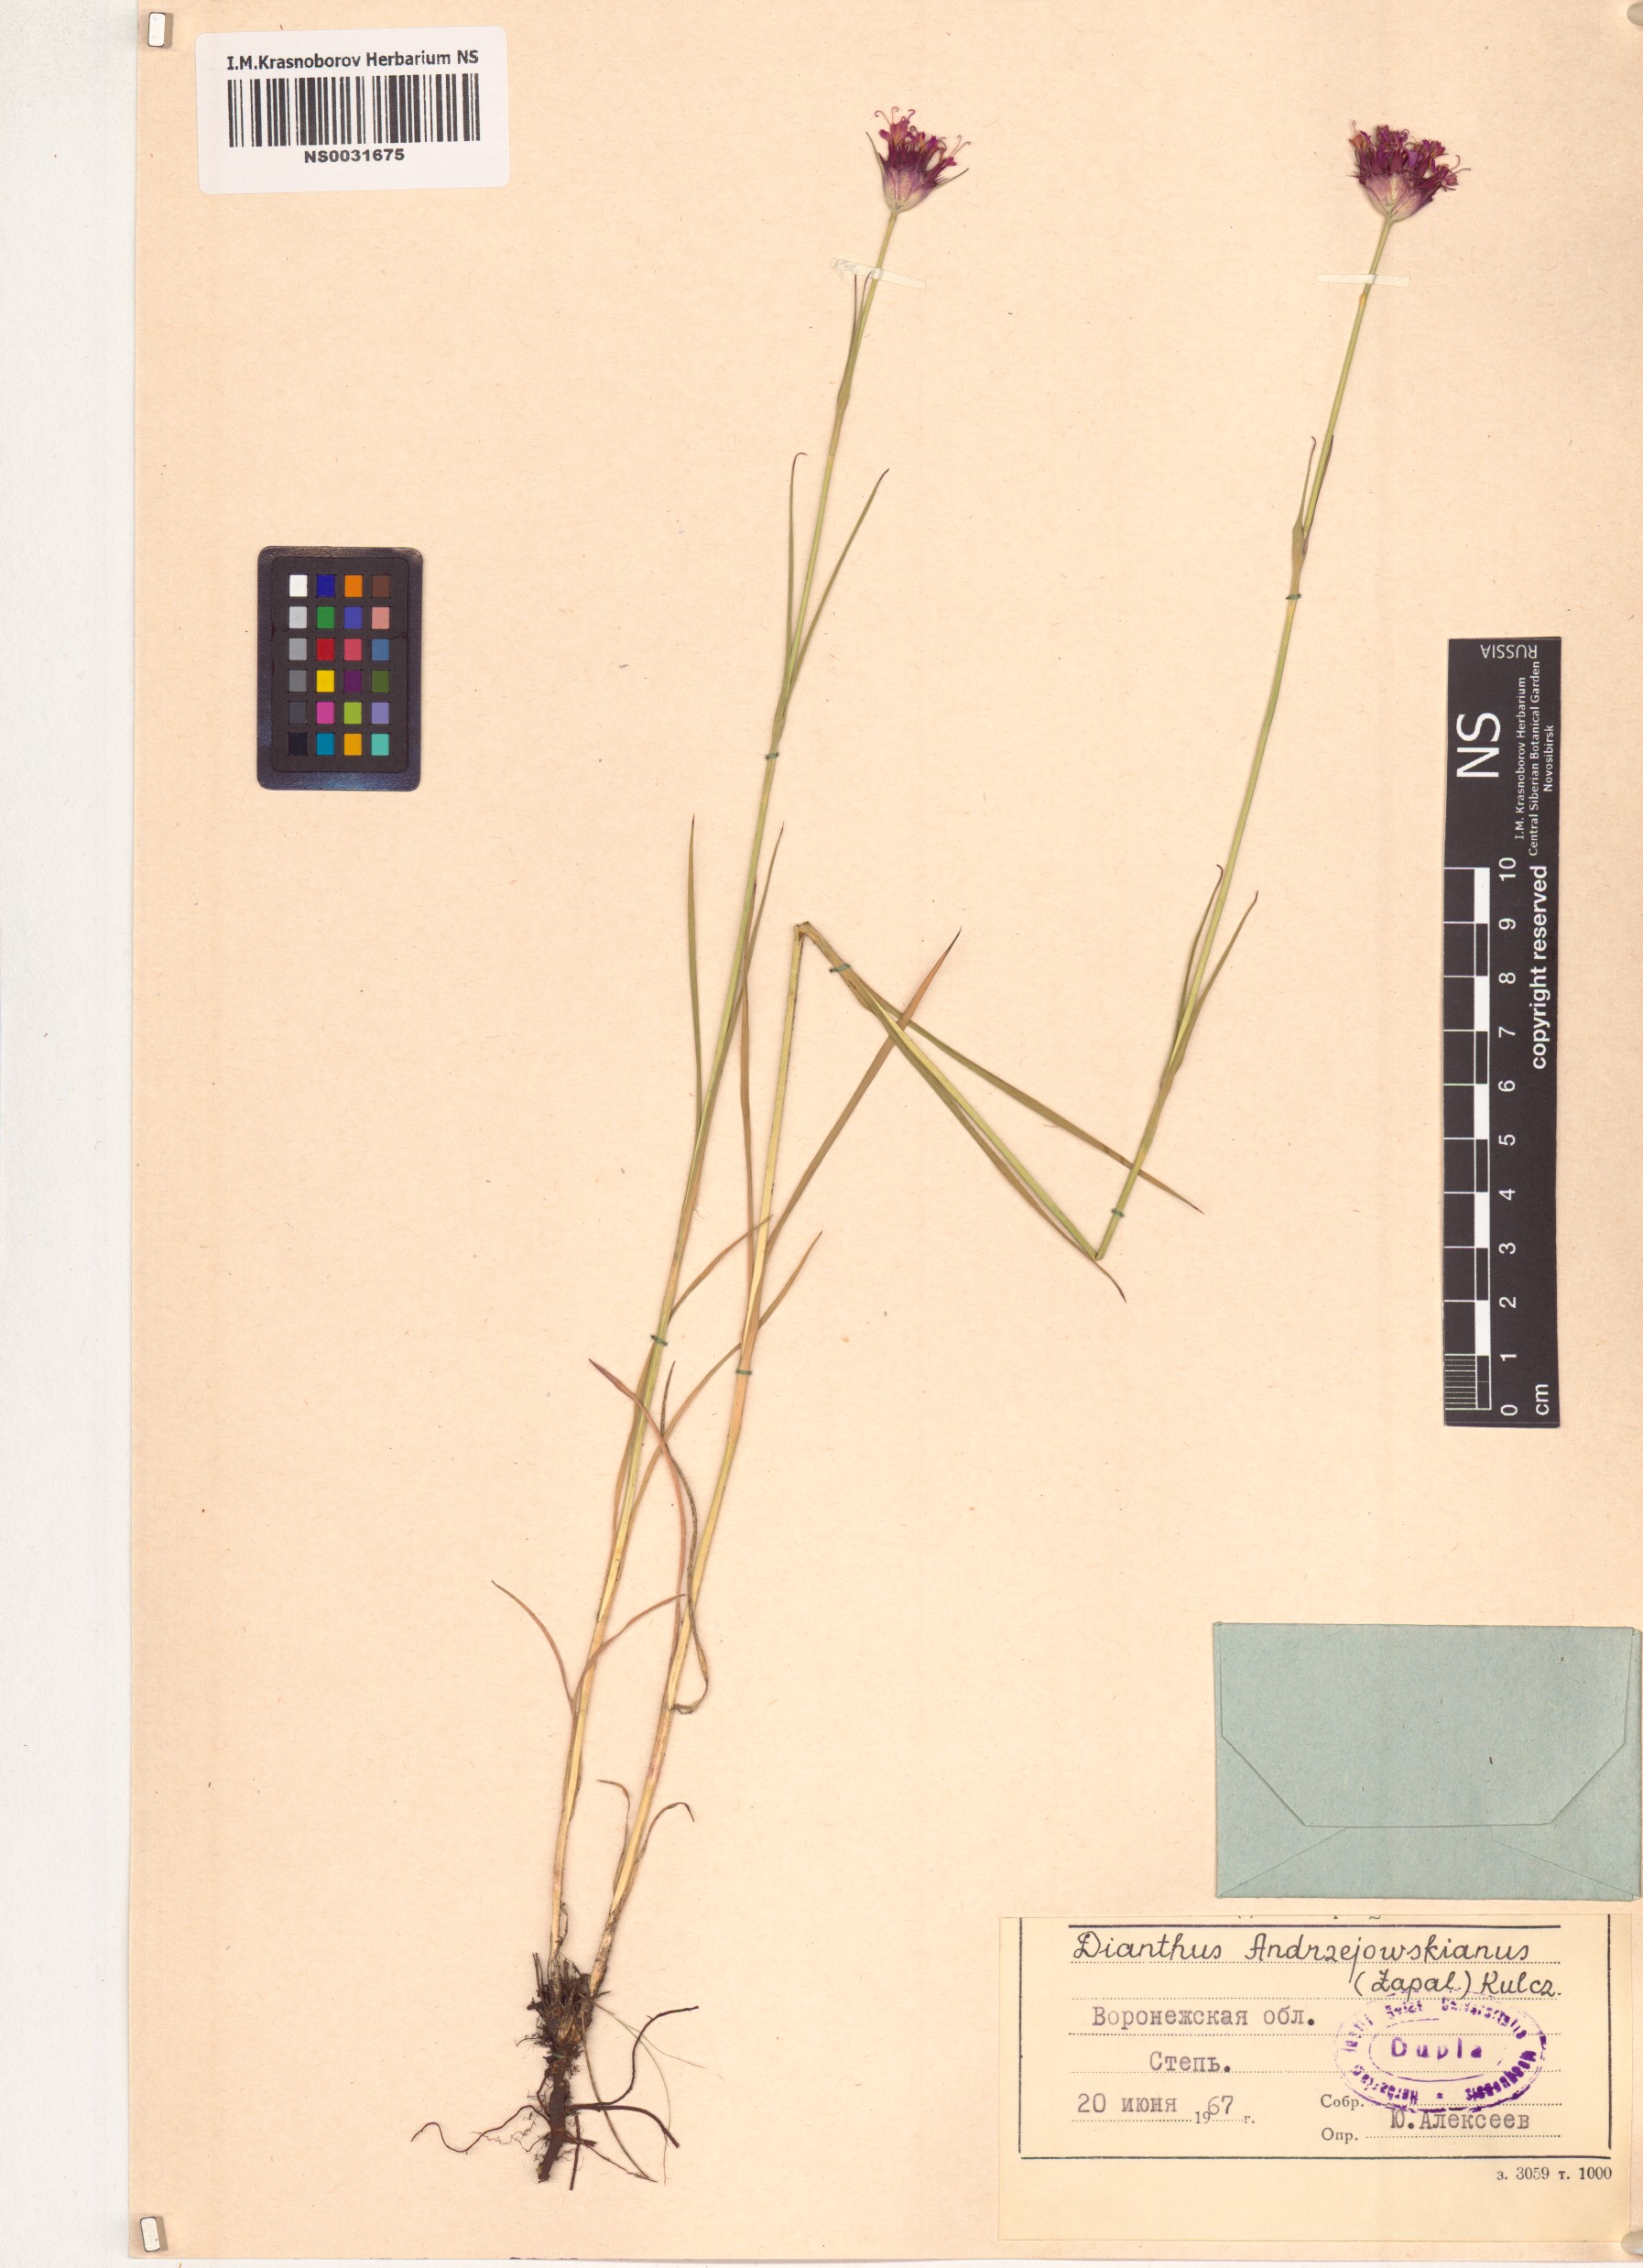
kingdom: Plantae
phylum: Tracheophyta
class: Magnoliopsida
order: Caryophyllales
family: Caryophyllaceae
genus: Dianthus
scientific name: Dianthus capitatus
